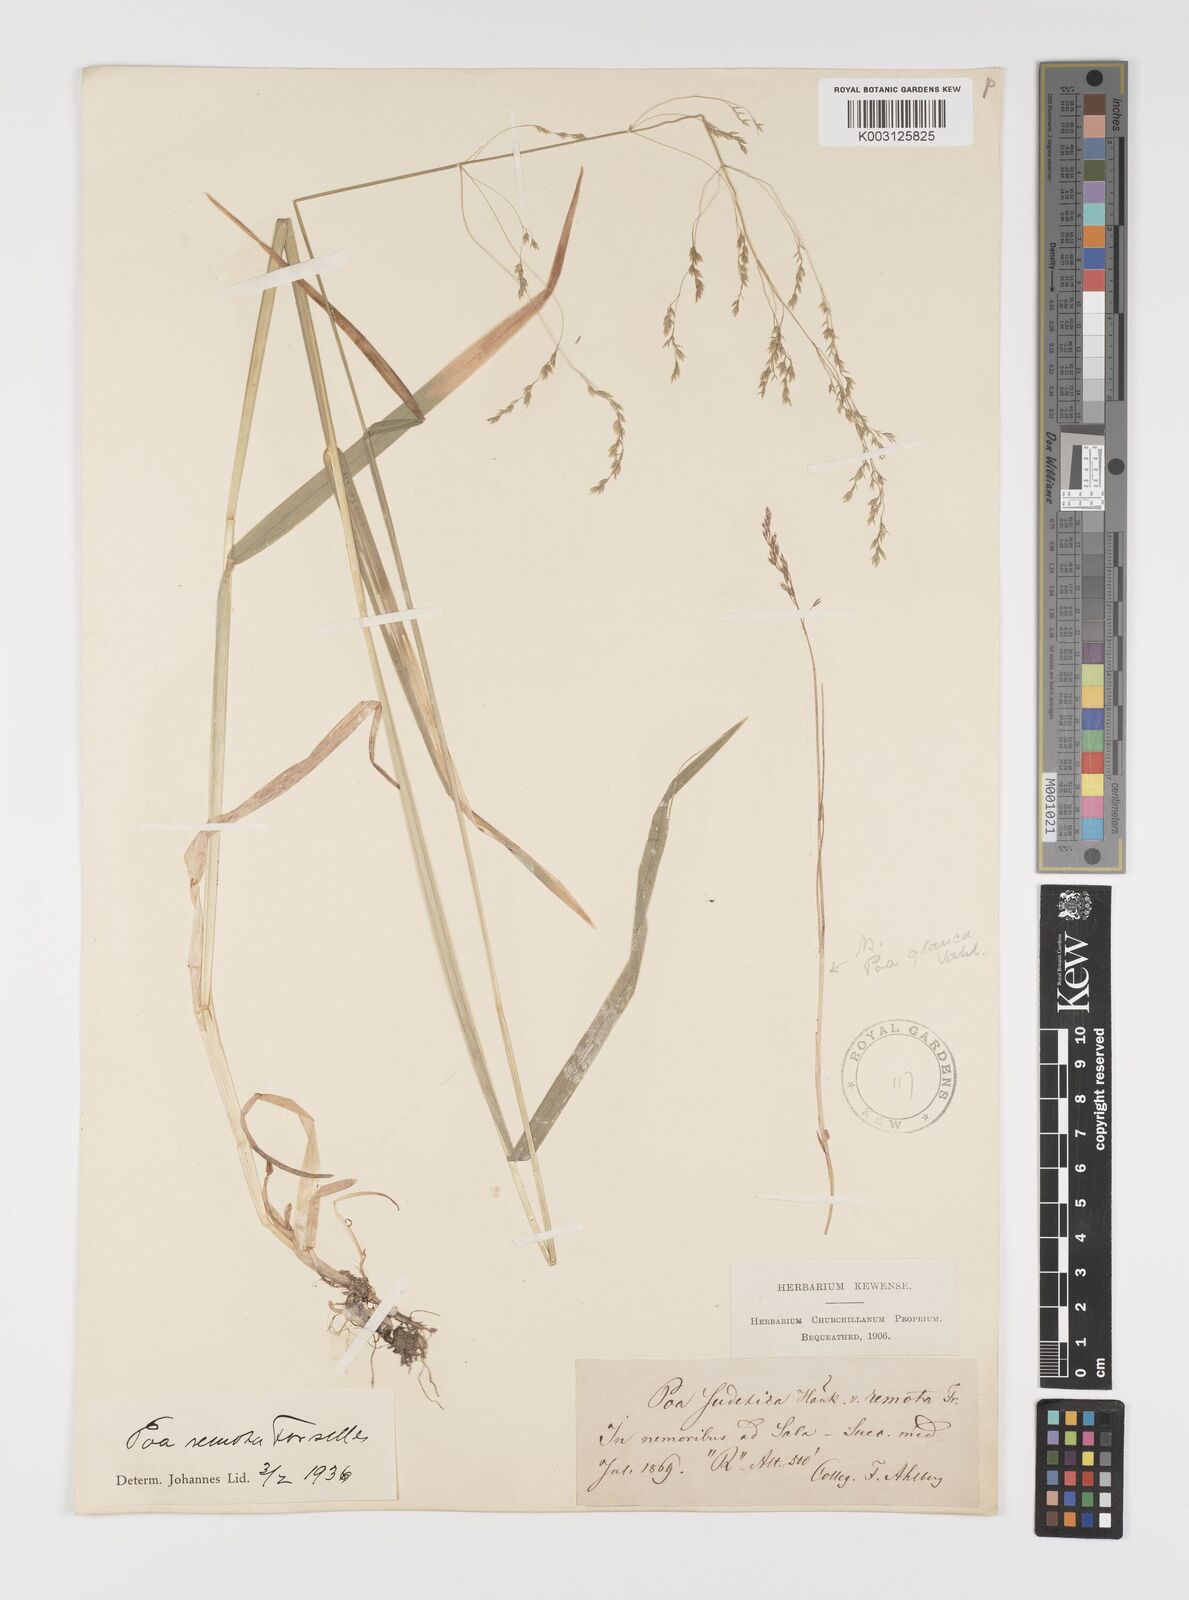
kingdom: Plantae
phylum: Tracheophyta
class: Liliopsida
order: Poales
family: Poaceae
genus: Poa
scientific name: Poa remota
